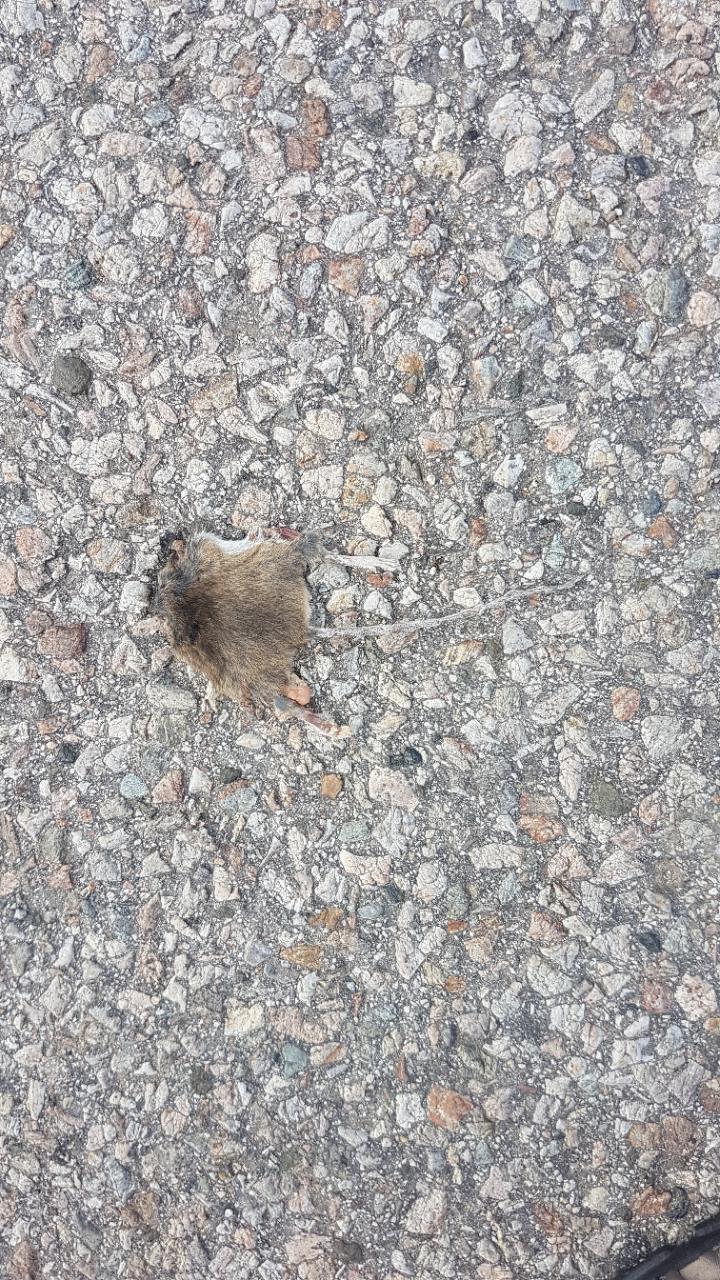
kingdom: Animalia
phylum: Chordata
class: Mammalia
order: Rodentia
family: Muridae
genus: Apodemus
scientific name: Apodemus
